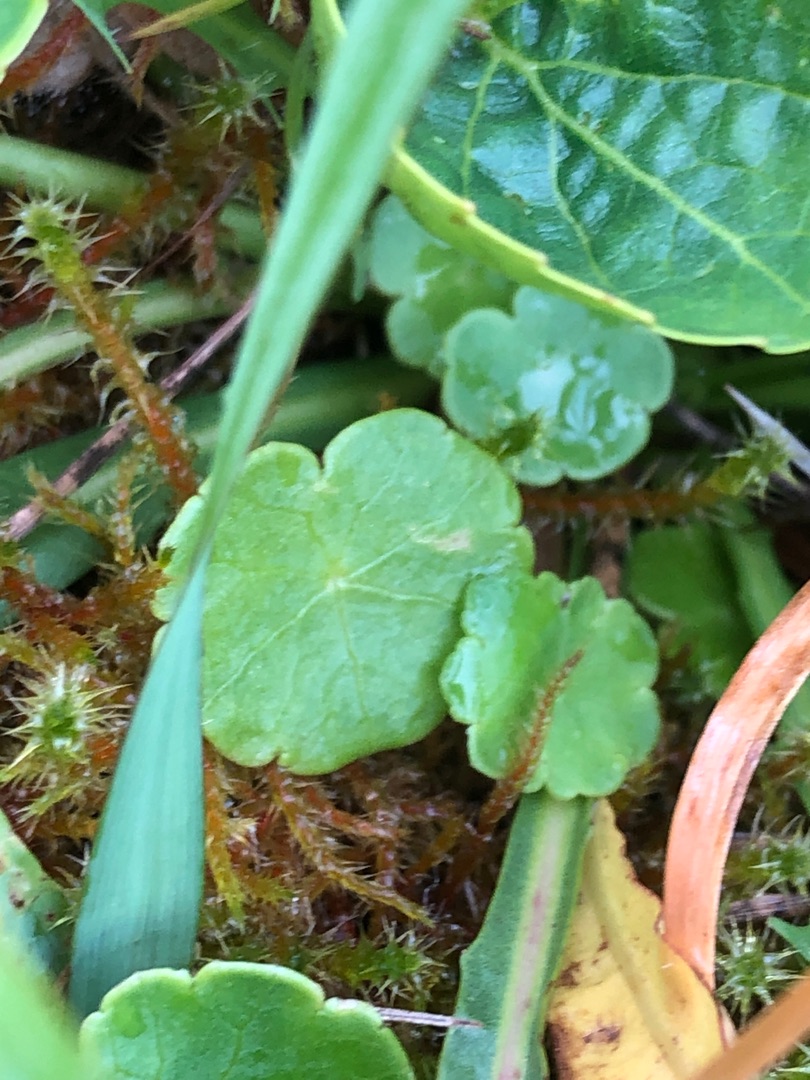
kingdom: Plantae
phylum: Tracheophyta
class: Magnoliopsida
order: Apiales
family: Araliaceae
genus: Hydrocotyle
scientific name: Hydrocotyle vulgaris
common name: Vandnavle
